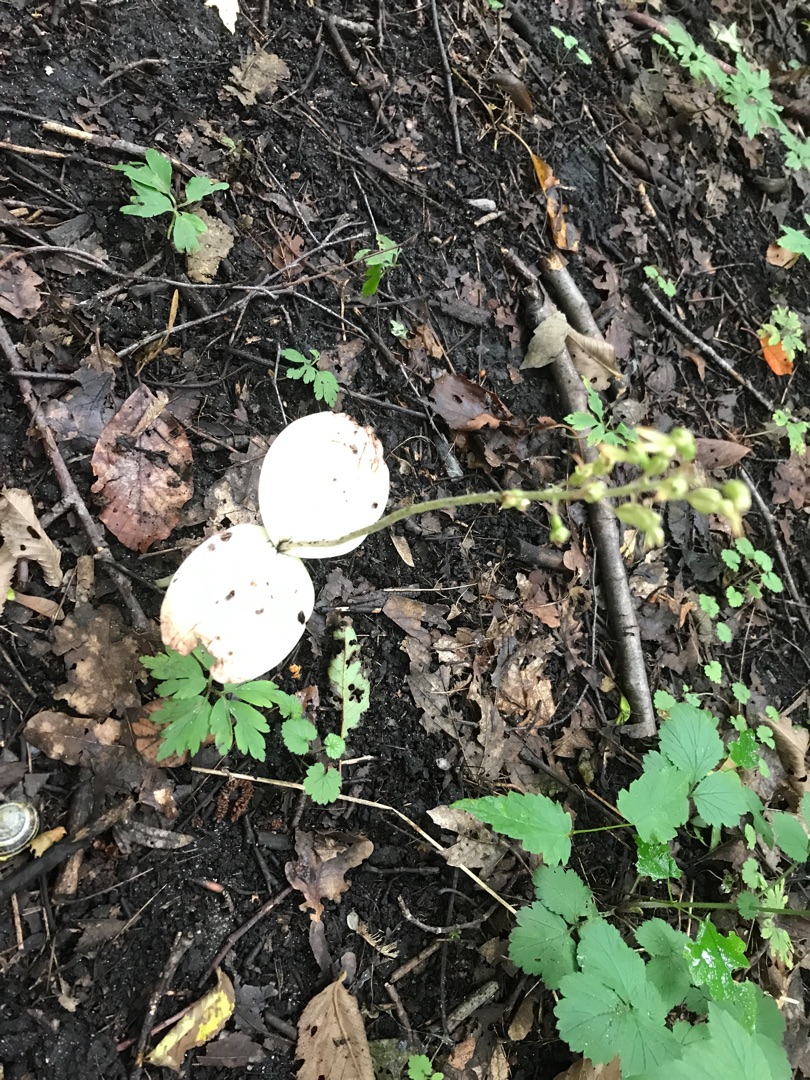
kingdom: Plantae
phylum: Tracheophyta
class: Liliopsida
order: Asparagales
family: Orchidaceae
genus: Neottia
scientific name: Neottia ovata
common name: Ægbladet fliglæbe
